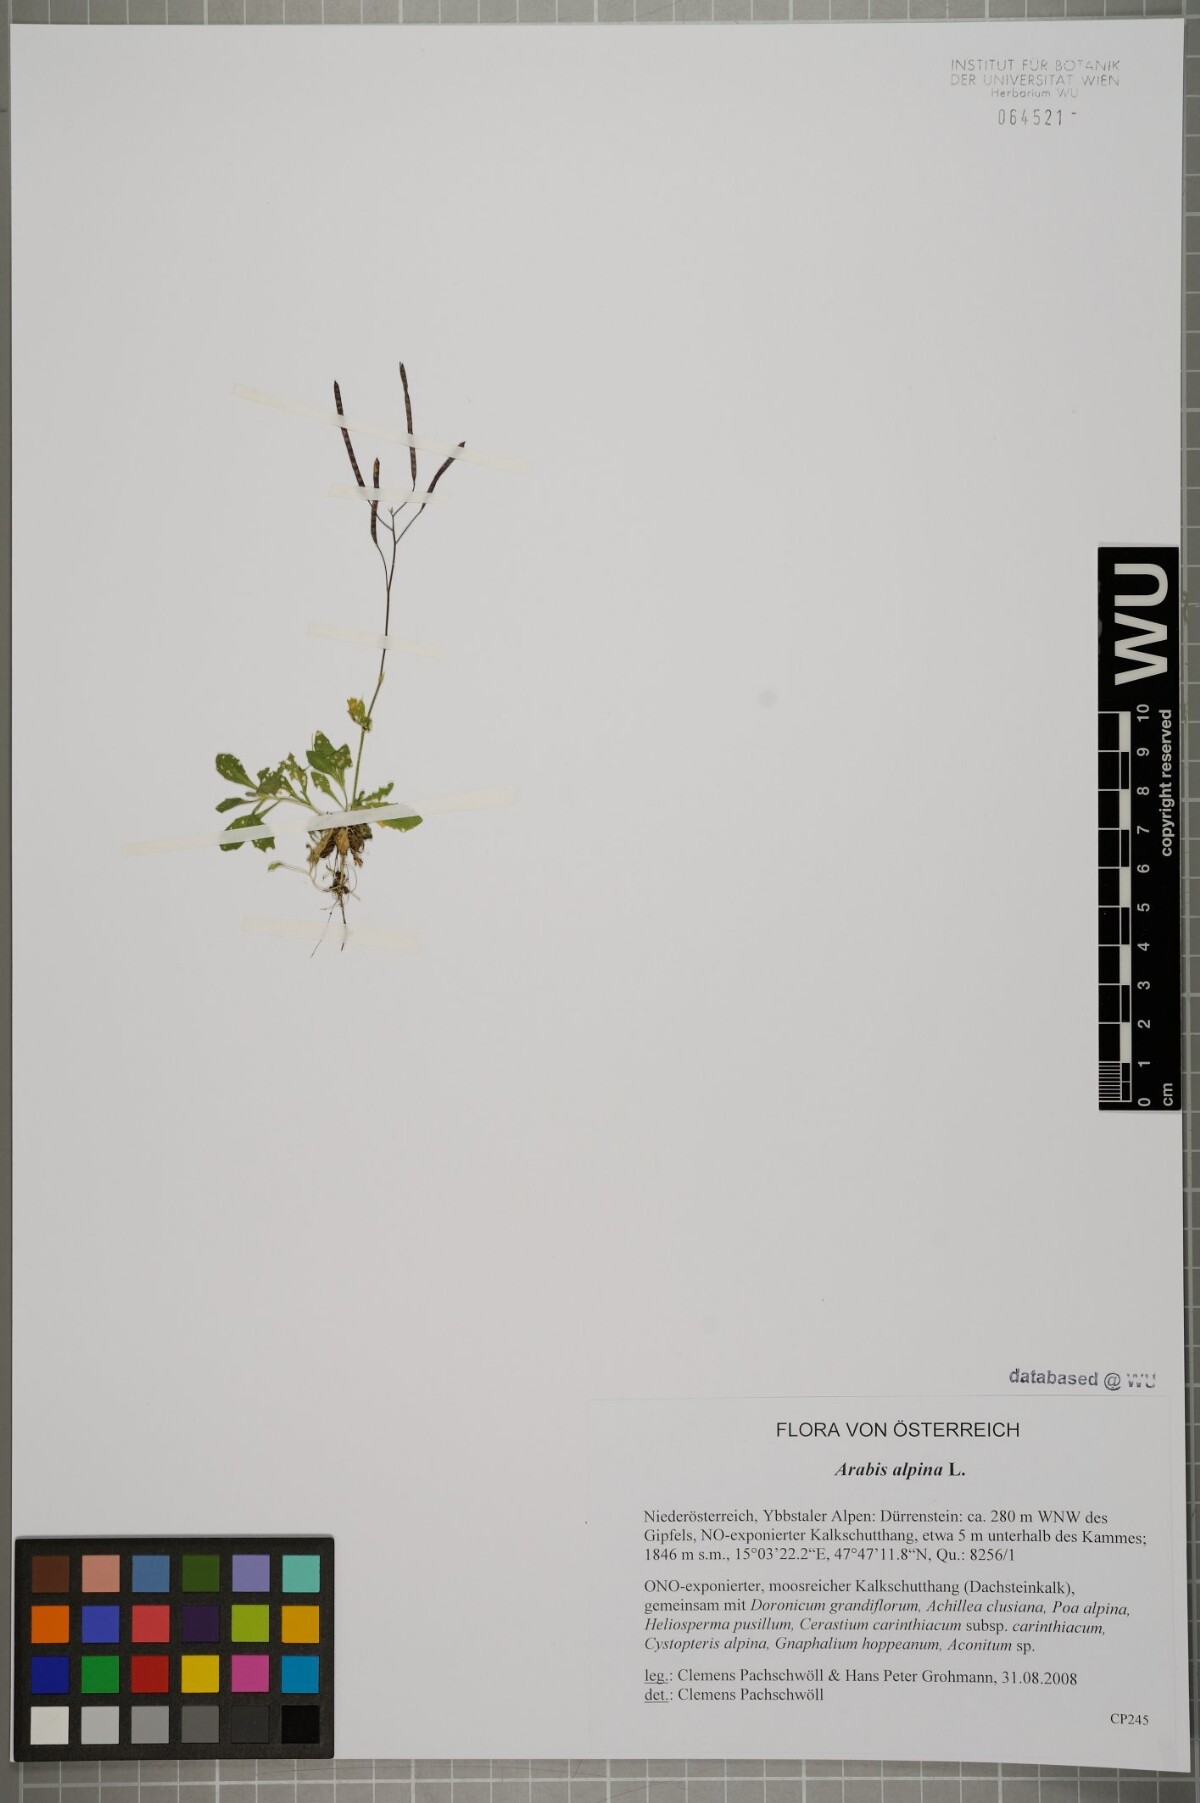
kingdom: Plantae
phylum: Tracheophyta
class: Magnoliopsida
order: Brassicales
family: Brassicaceae
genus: Arabis
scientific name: Arabis alpina
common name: Alpine rock-cress
